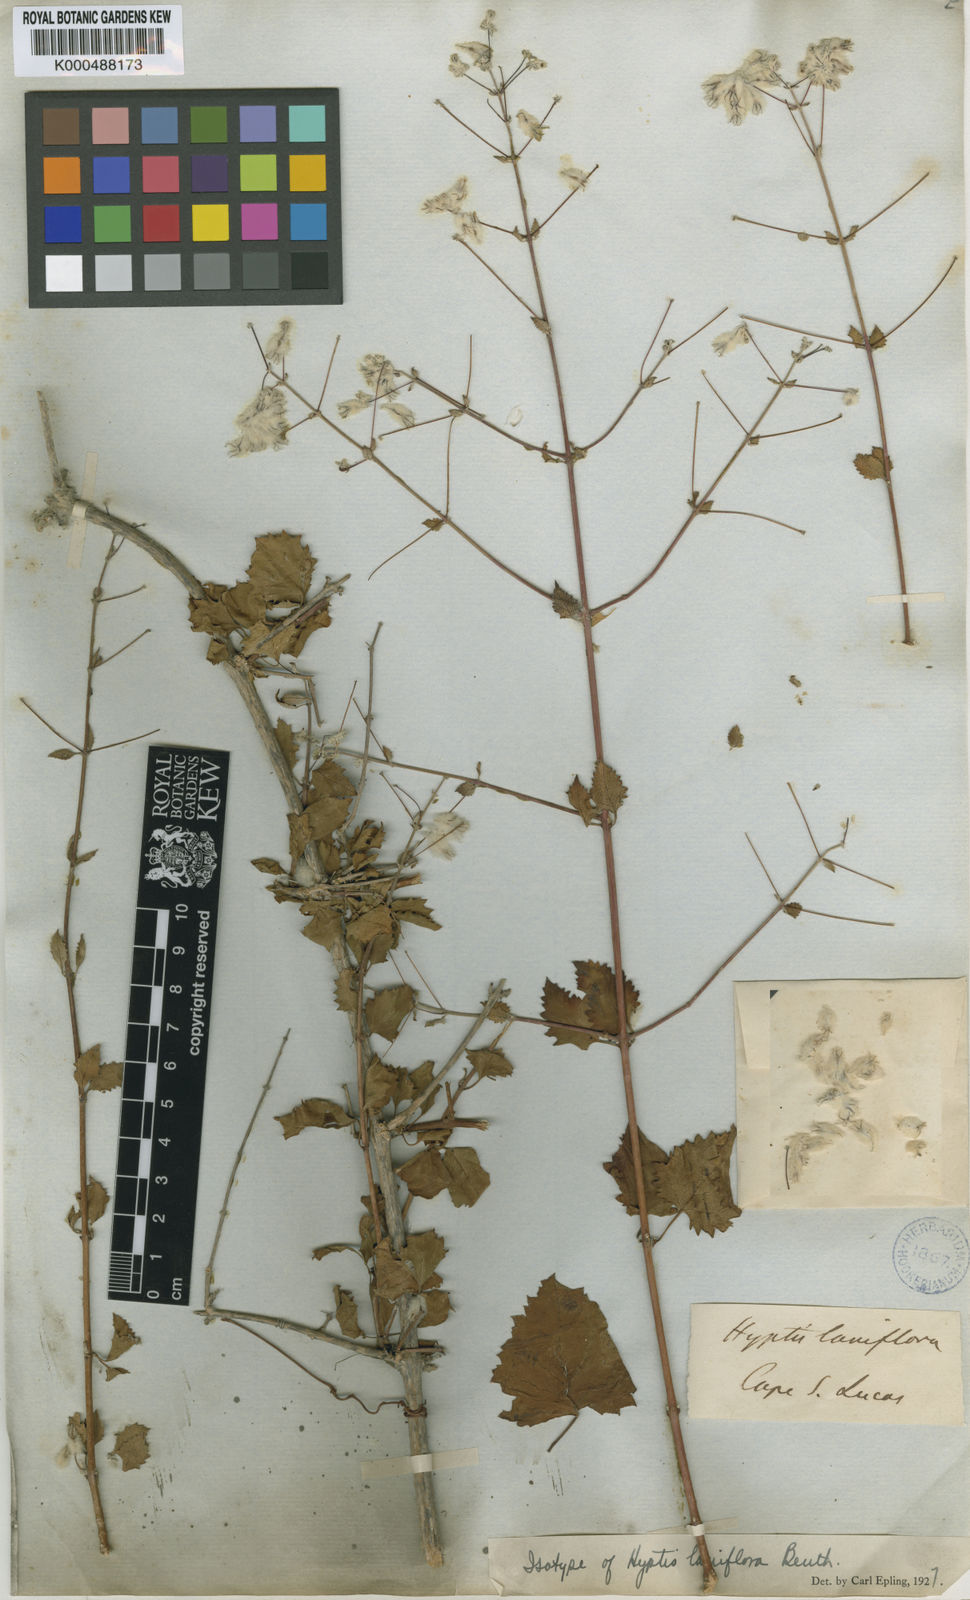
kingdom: Plantae
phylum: Tracheophyta
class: Magnoliopsida
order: Lamiales
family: Lamiaceae
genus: Condea
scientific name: Condea laniflora
